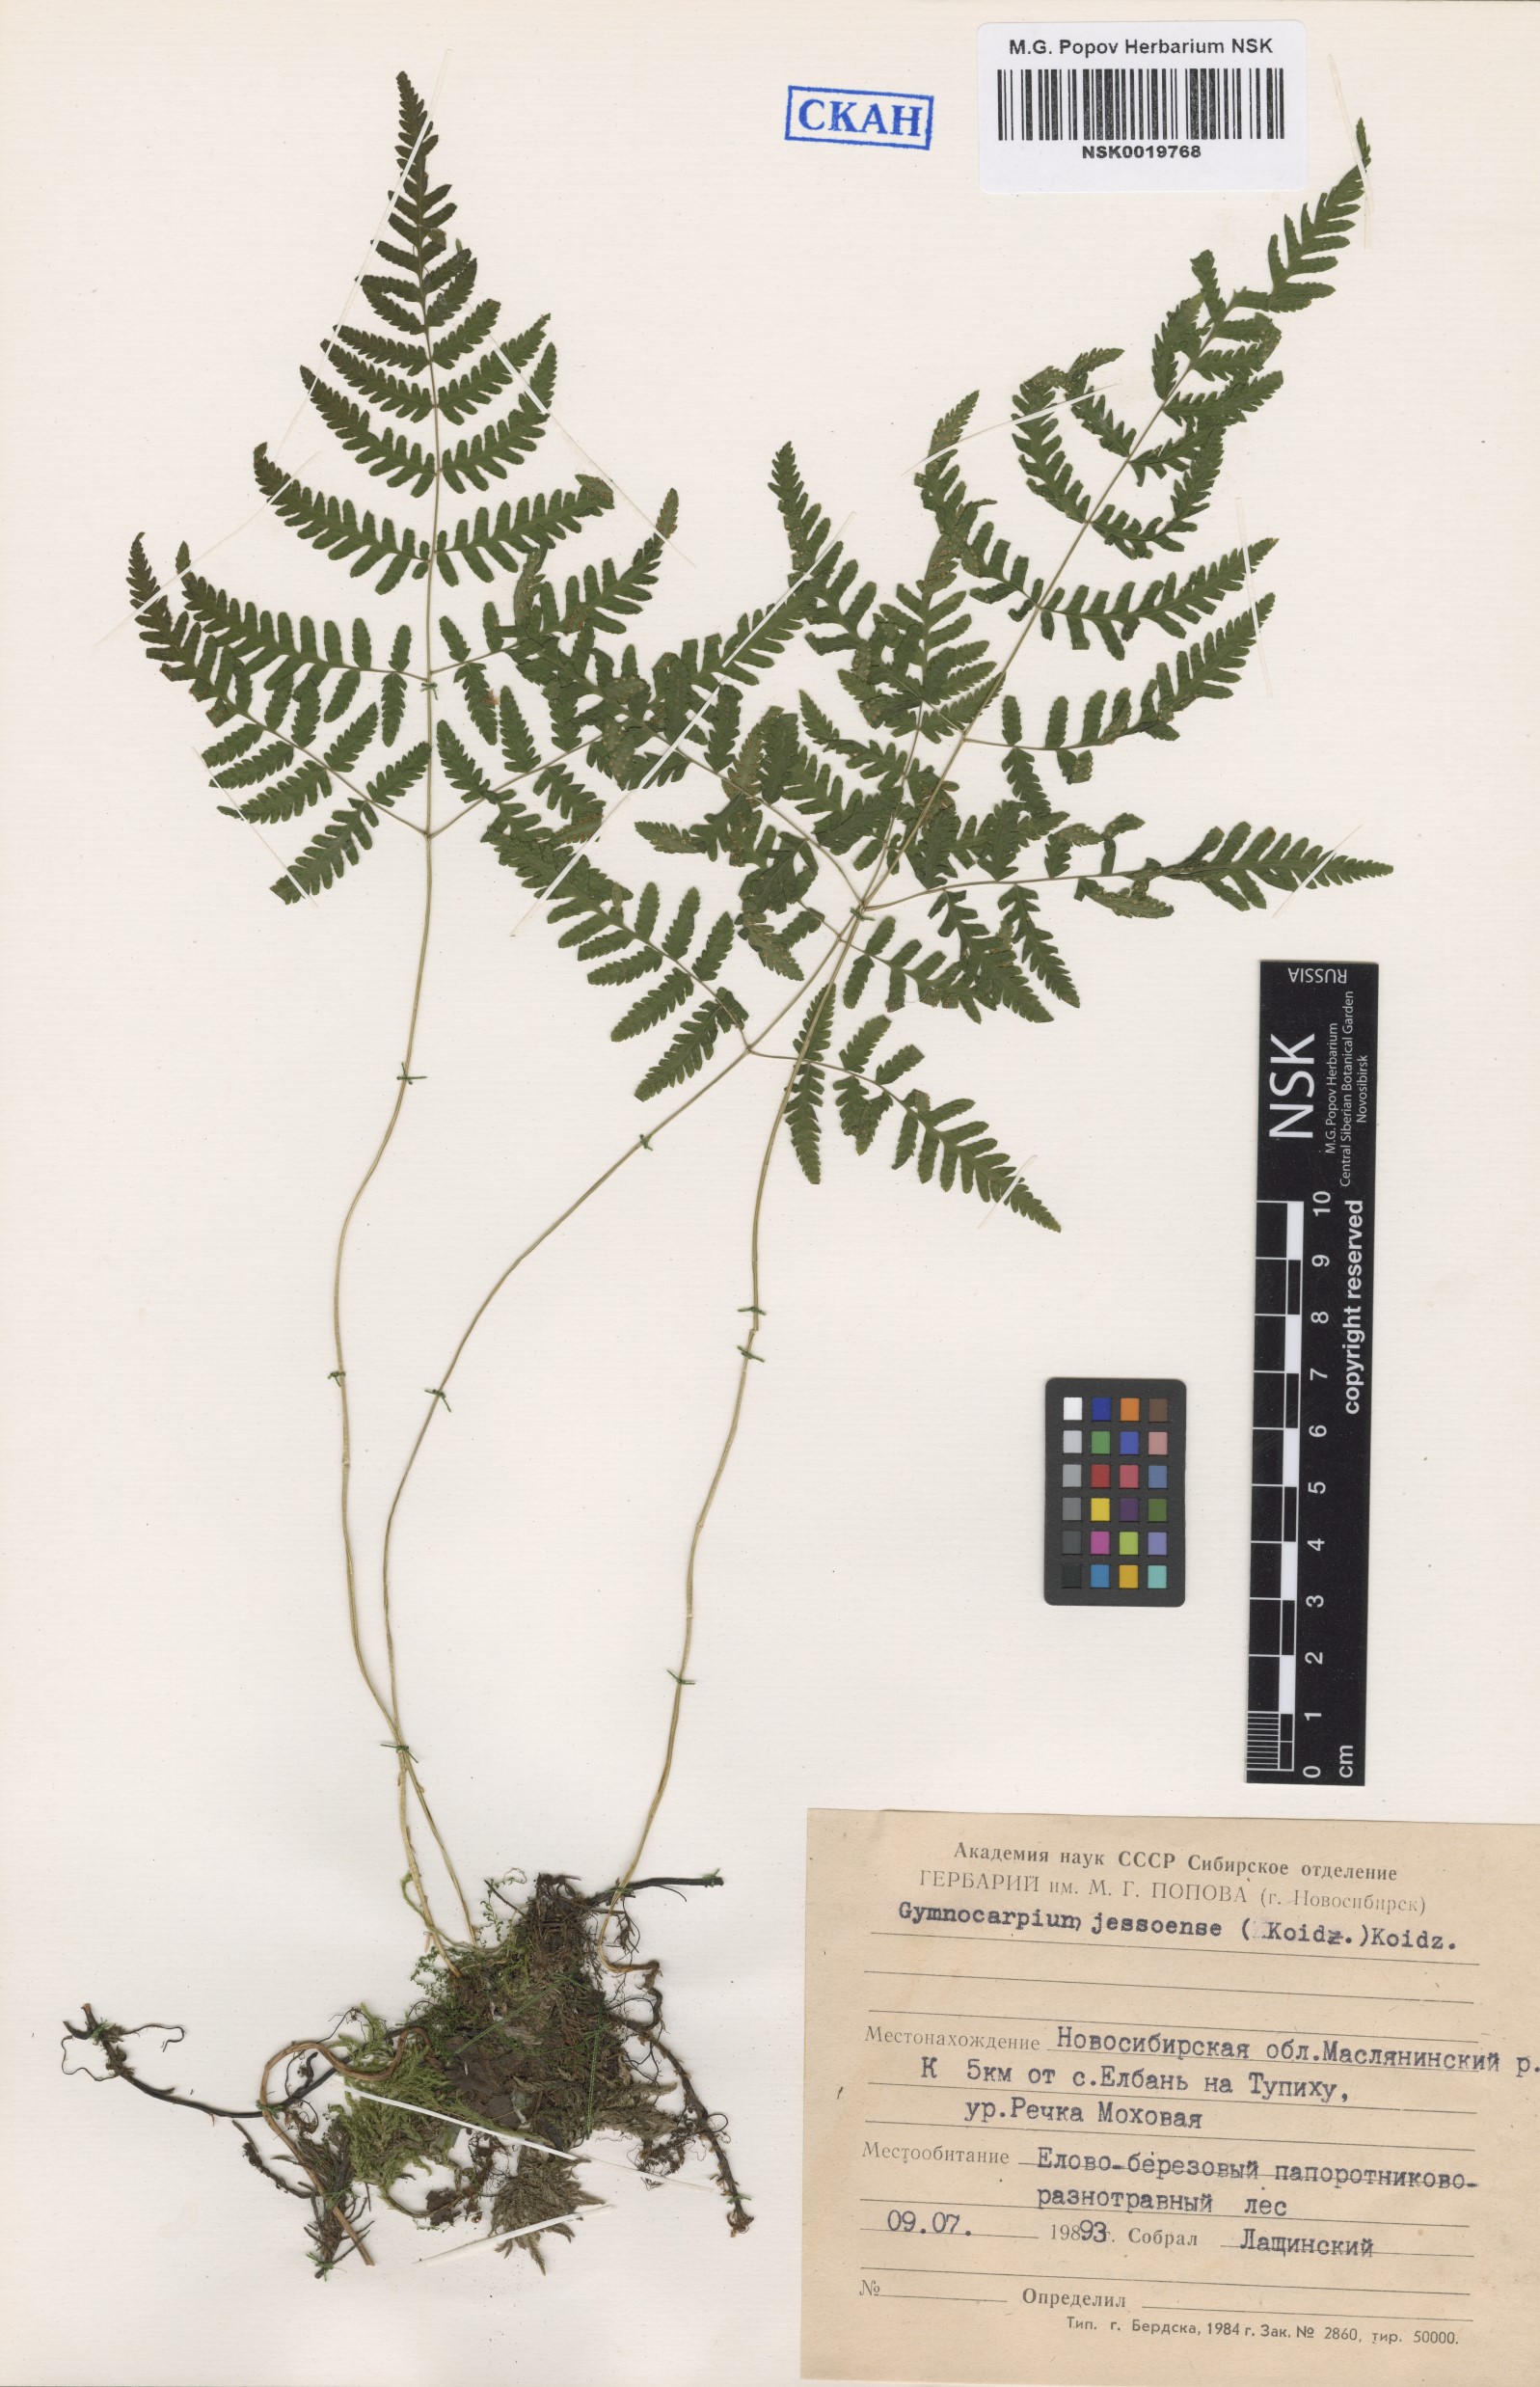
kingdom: Plantae
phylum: Tracheophyta
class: Polypodiopsida
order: Polypodiales
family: Cystopteridaceae
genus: Gymnocarpium
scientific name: Gymnocarpium jessoense
